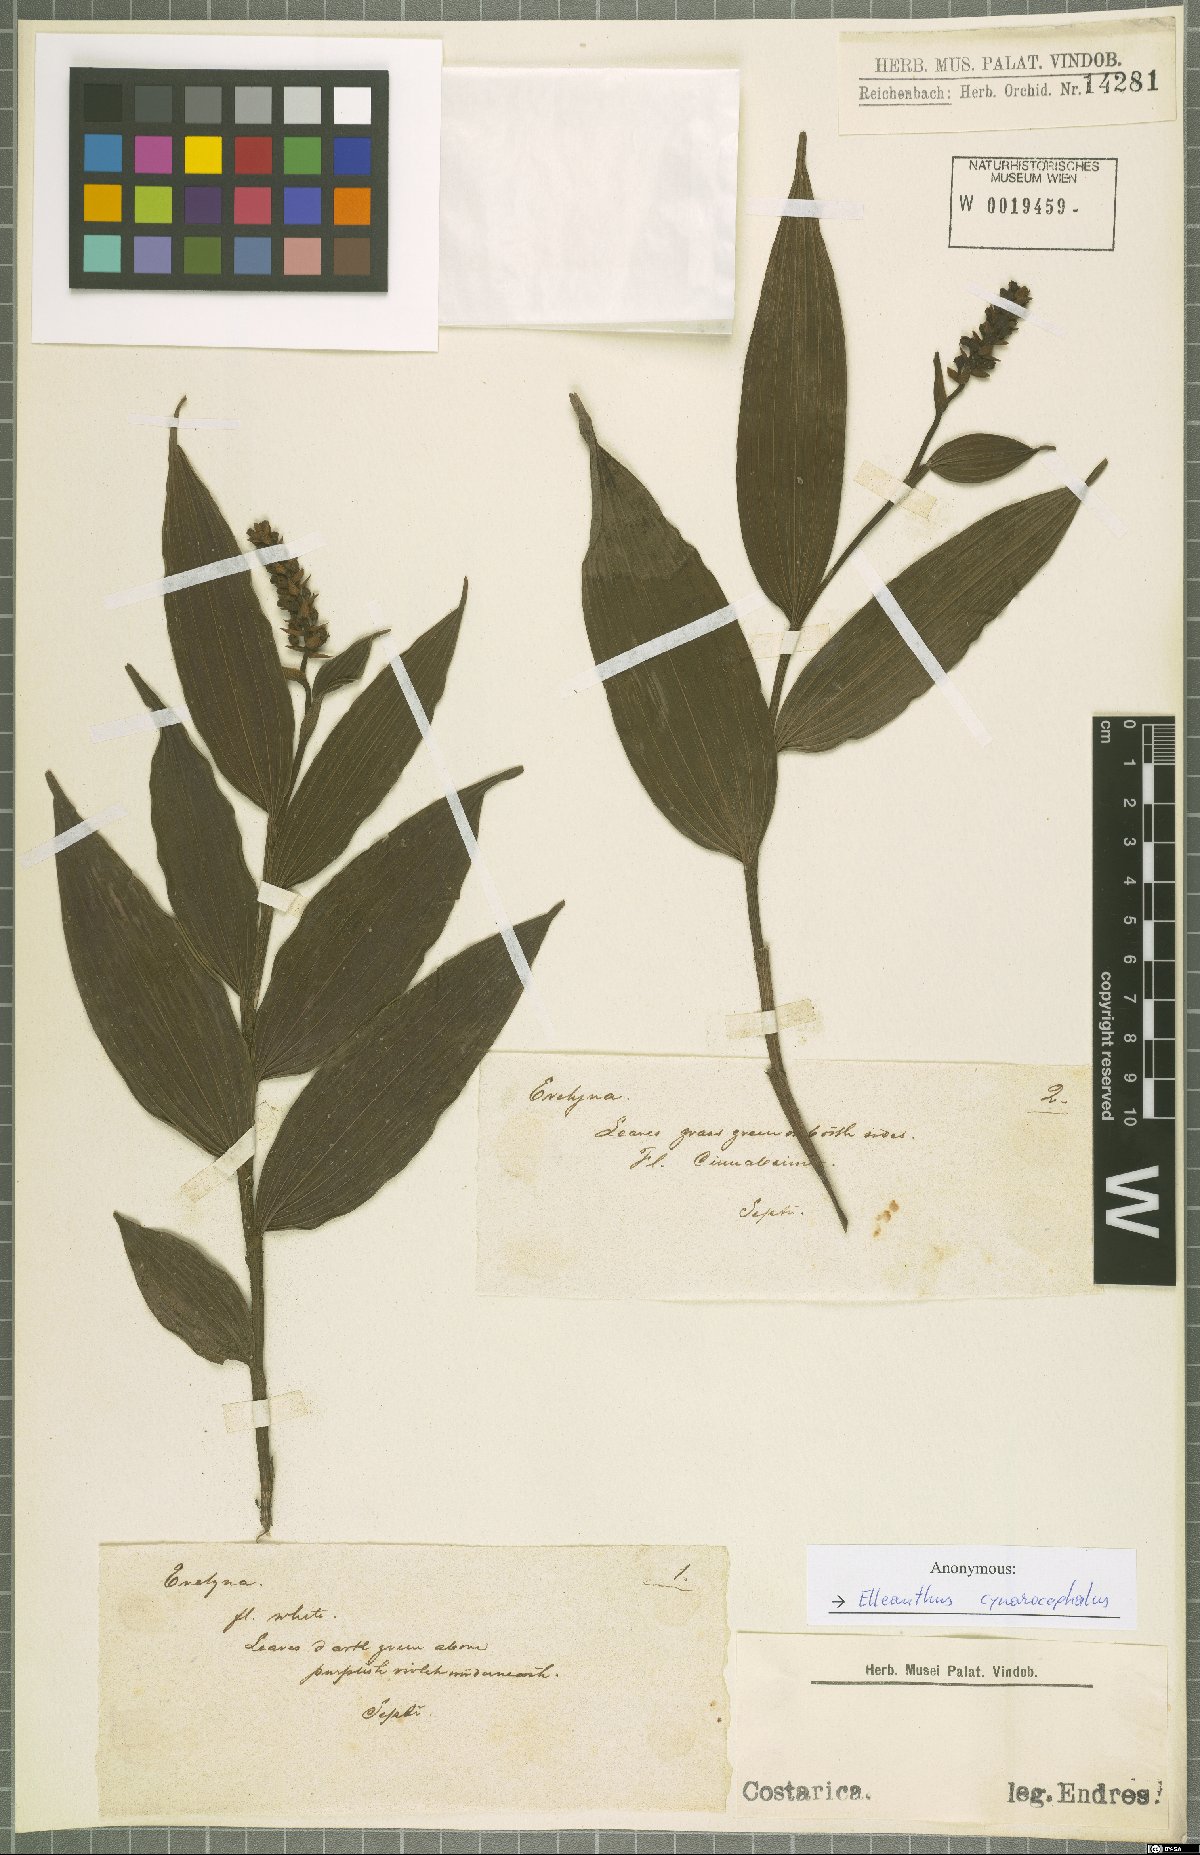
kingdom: Plantae
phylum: Tracheophyta
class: Liliopsida
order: Asparagales
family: Orchidaceae
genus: Elleanthus
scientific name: Elleanthus capitatus
